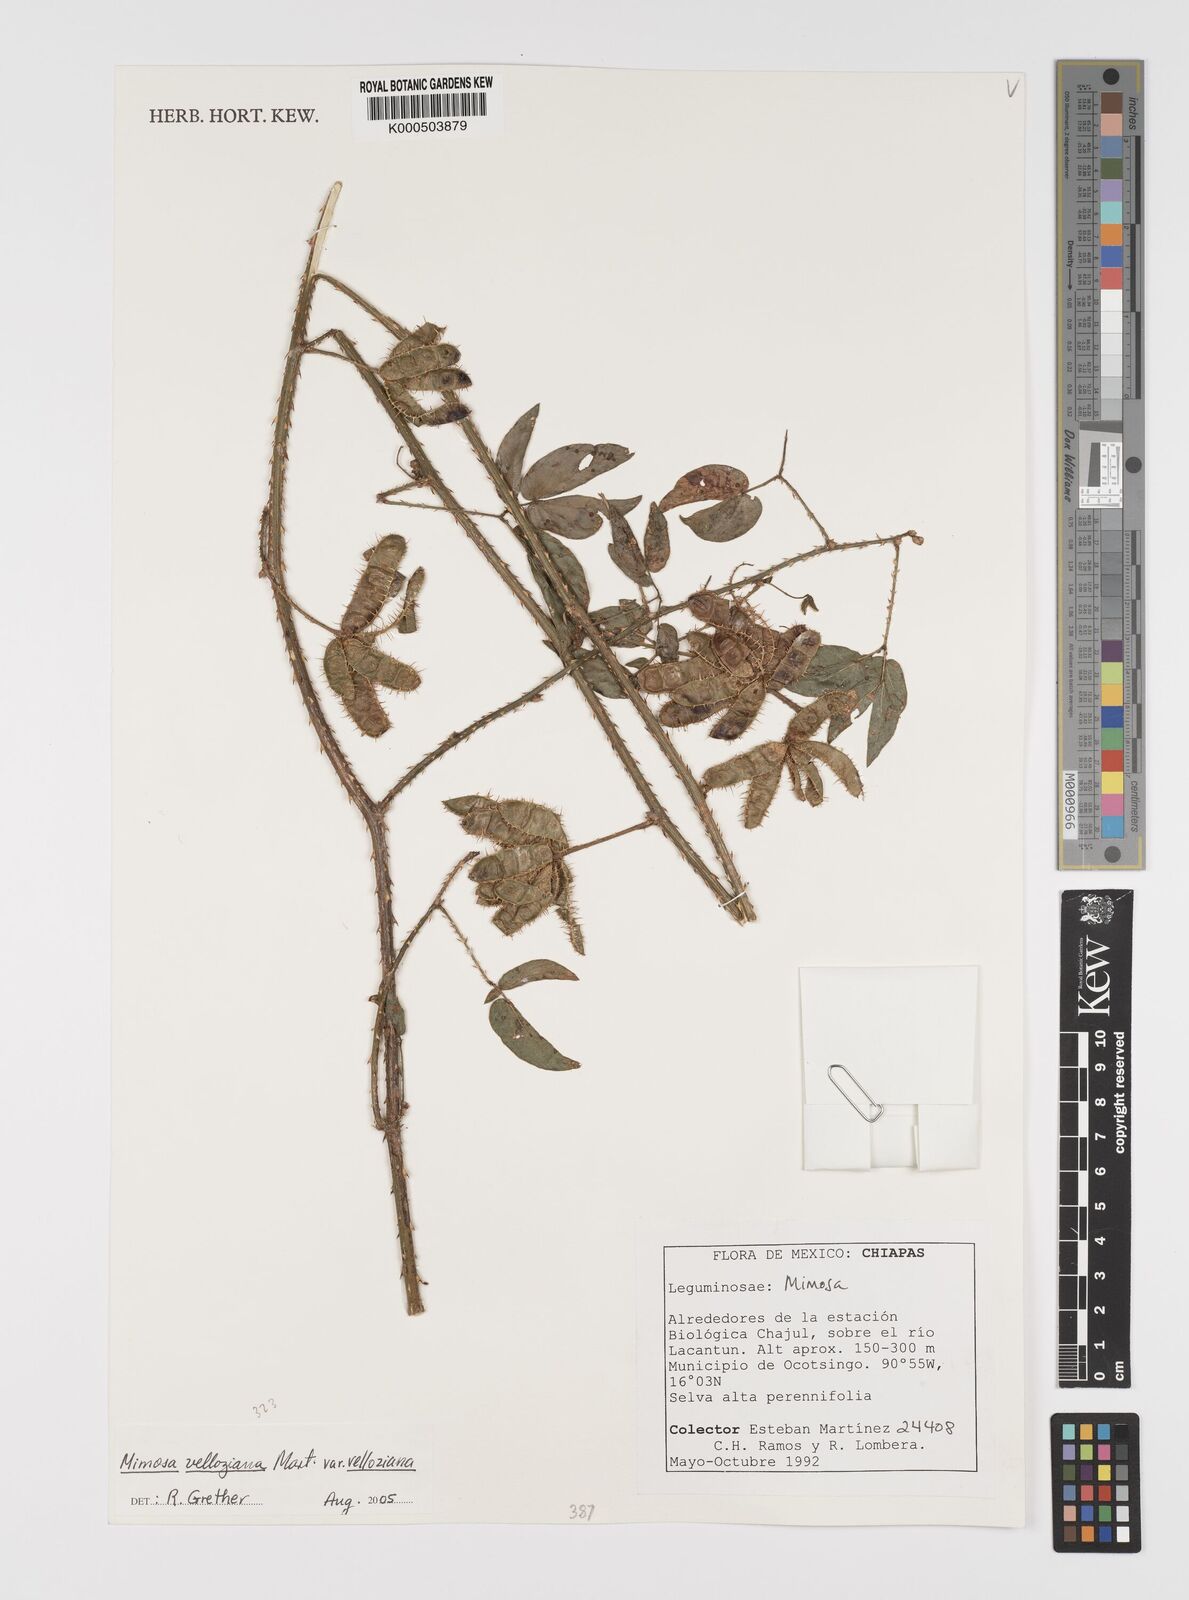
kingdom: Plantae
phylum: Tracheophyta
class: Magnoliopsida
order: Fabales
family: Fabaceae
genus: Mimosa
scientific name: Mimosa velloziana
